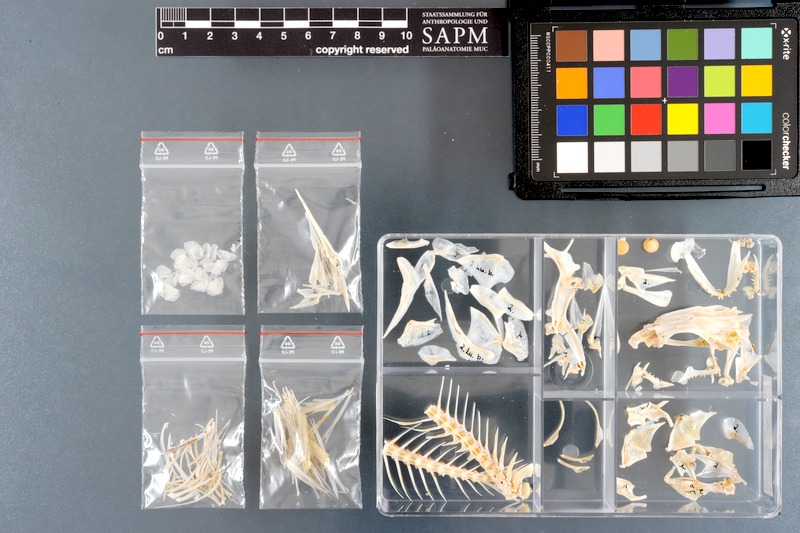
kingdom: Animalia
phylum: Chordata
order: Perciformes
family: Lutjanidae
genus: Lutjanus
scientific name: Lutjanus bohar
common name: Red bass
